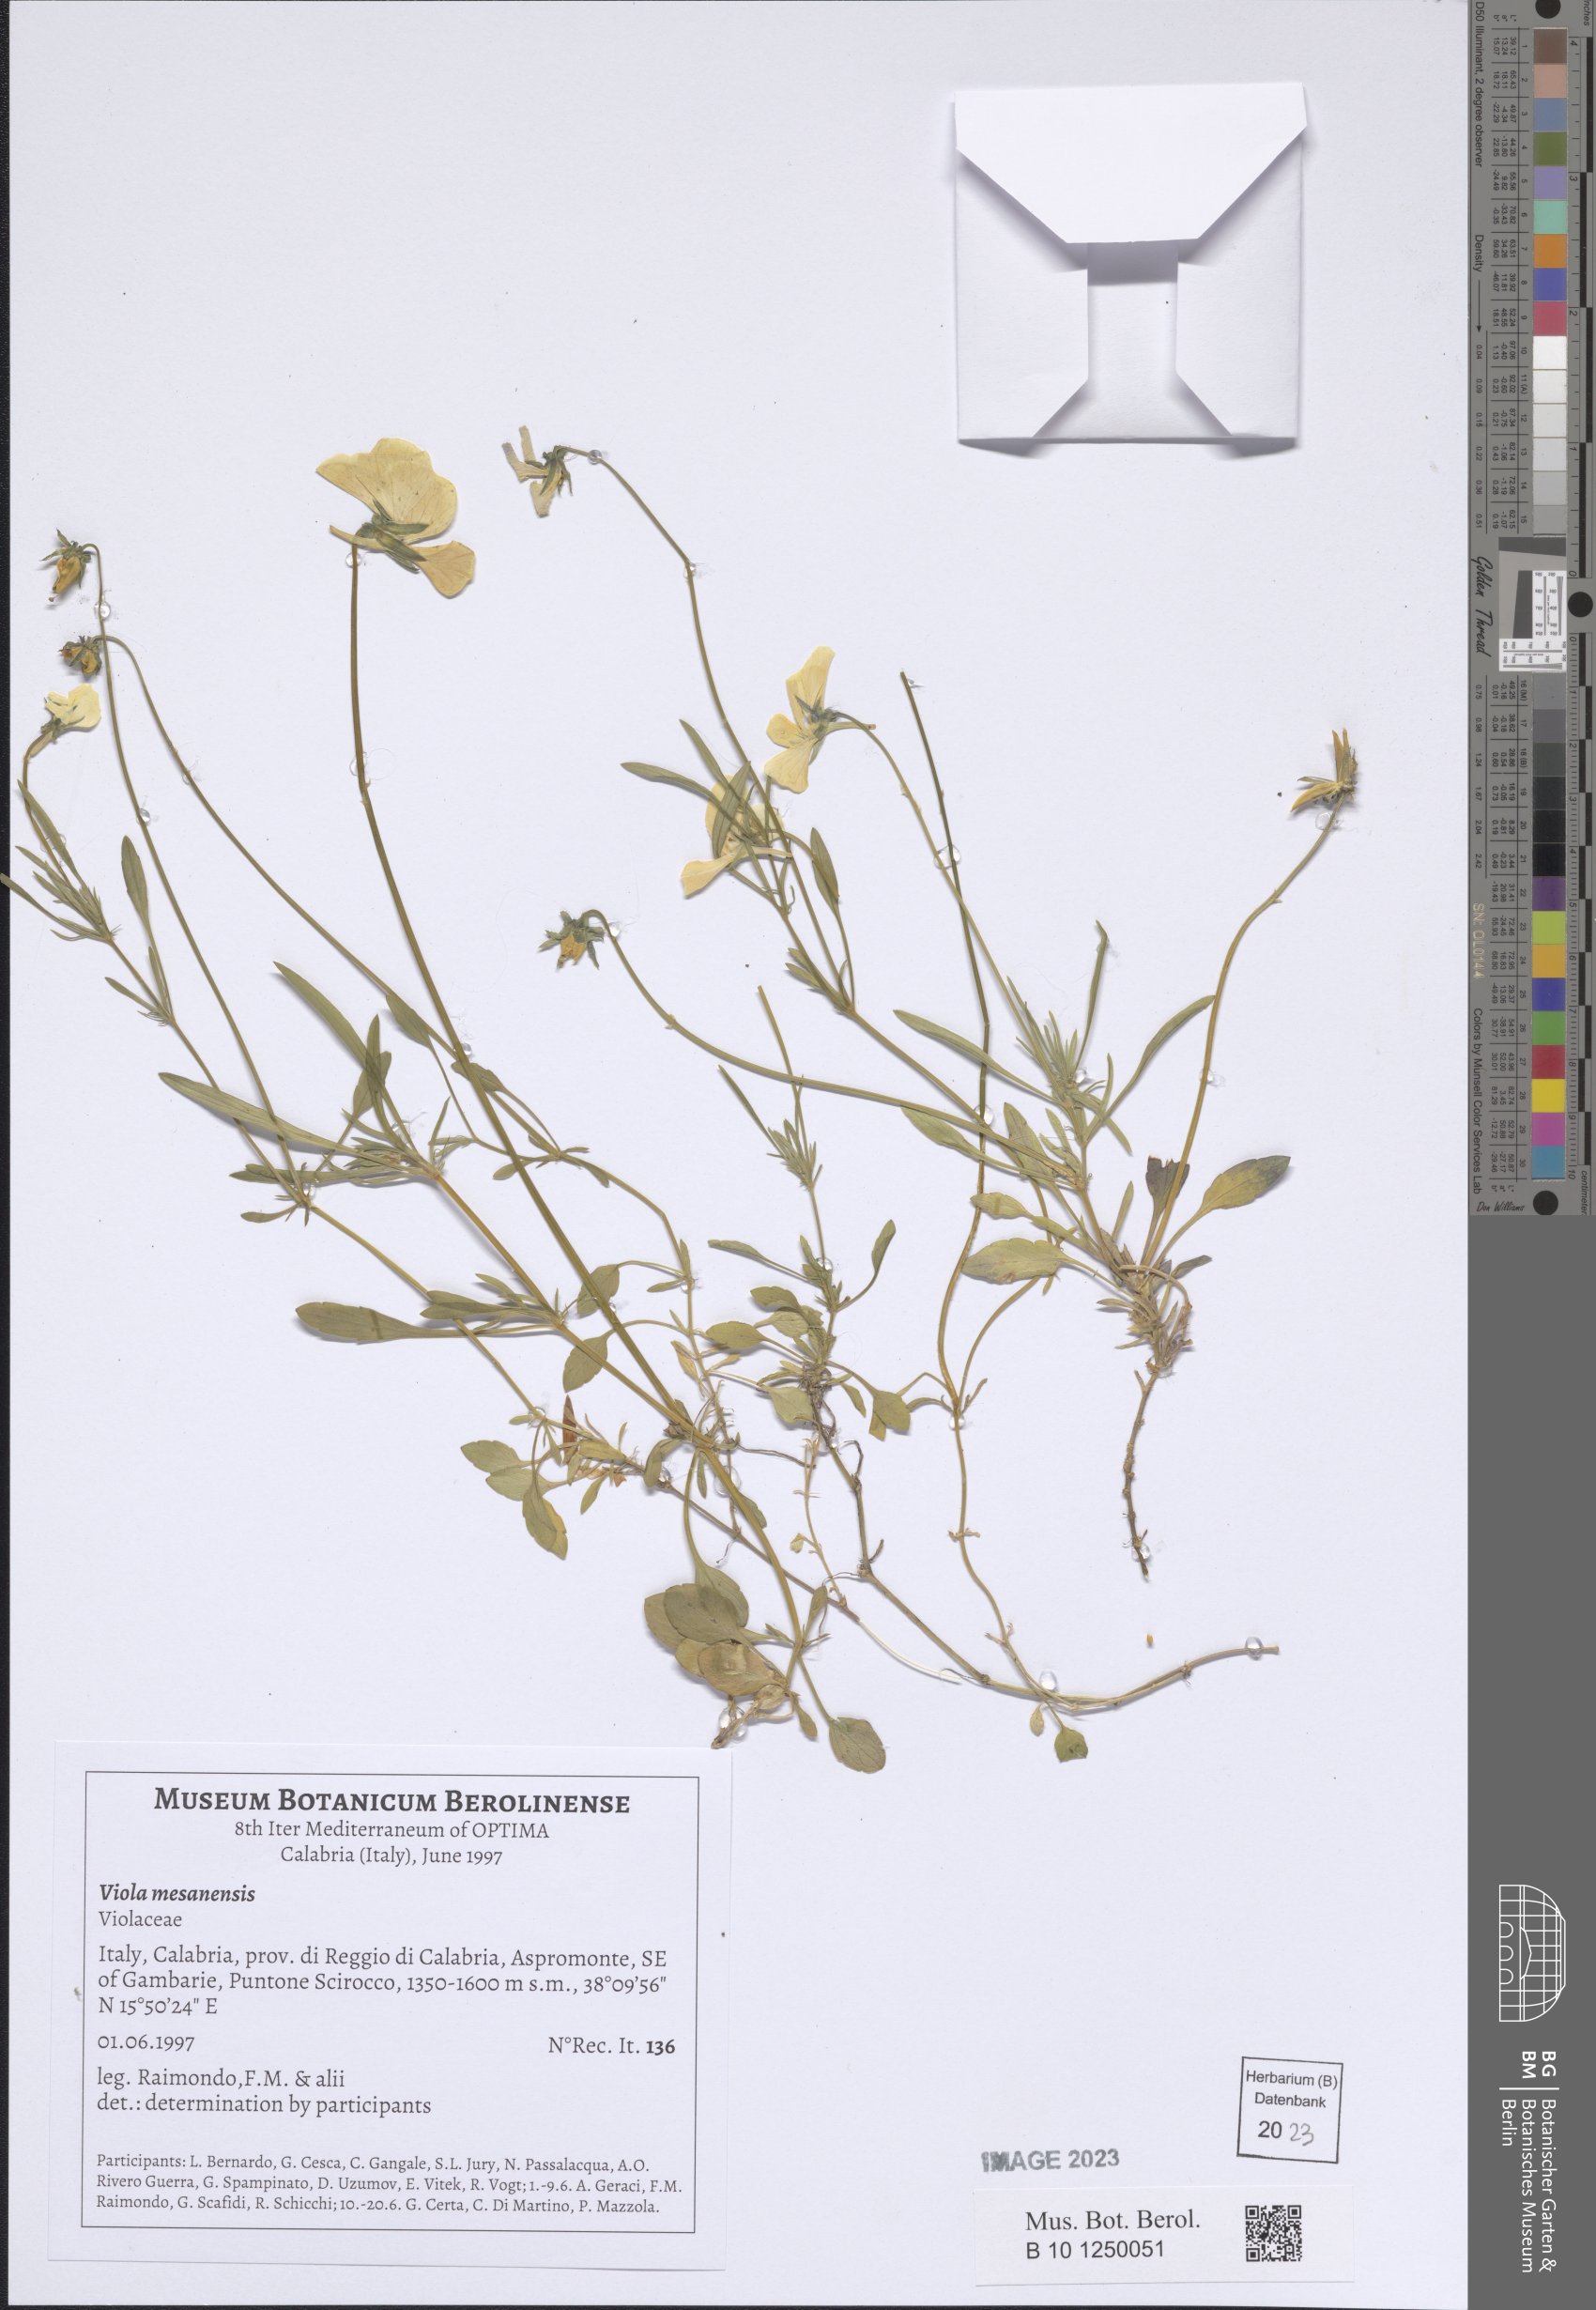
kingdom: Plantae
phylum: Tracheophyta
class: Magnoliopsida
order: Malpighiales
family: Violaceae
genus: Viola
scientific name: Viola mesadensis
